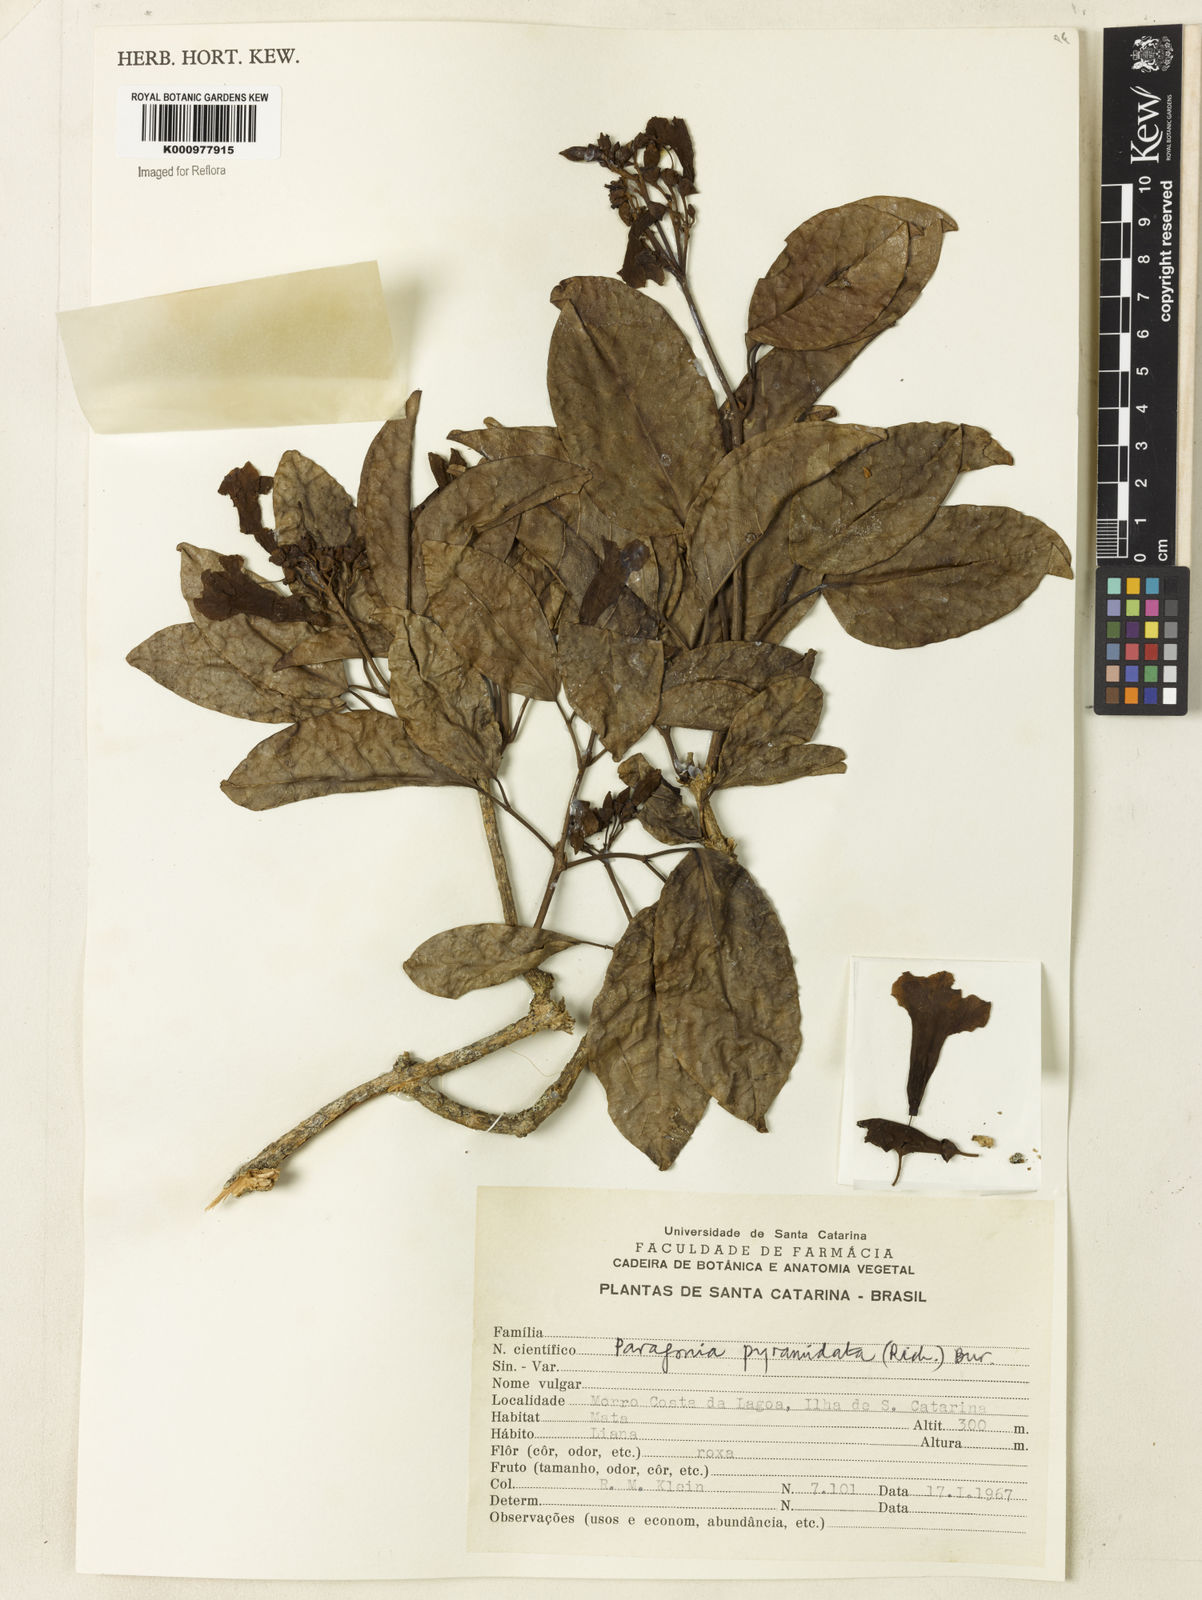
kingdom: Plantae
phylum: Tracheophyta
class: Magnoliopsida
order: Lamiales
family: Bignoniaceae
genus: Tanaecium
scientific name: Tanaecium pyramidatum
